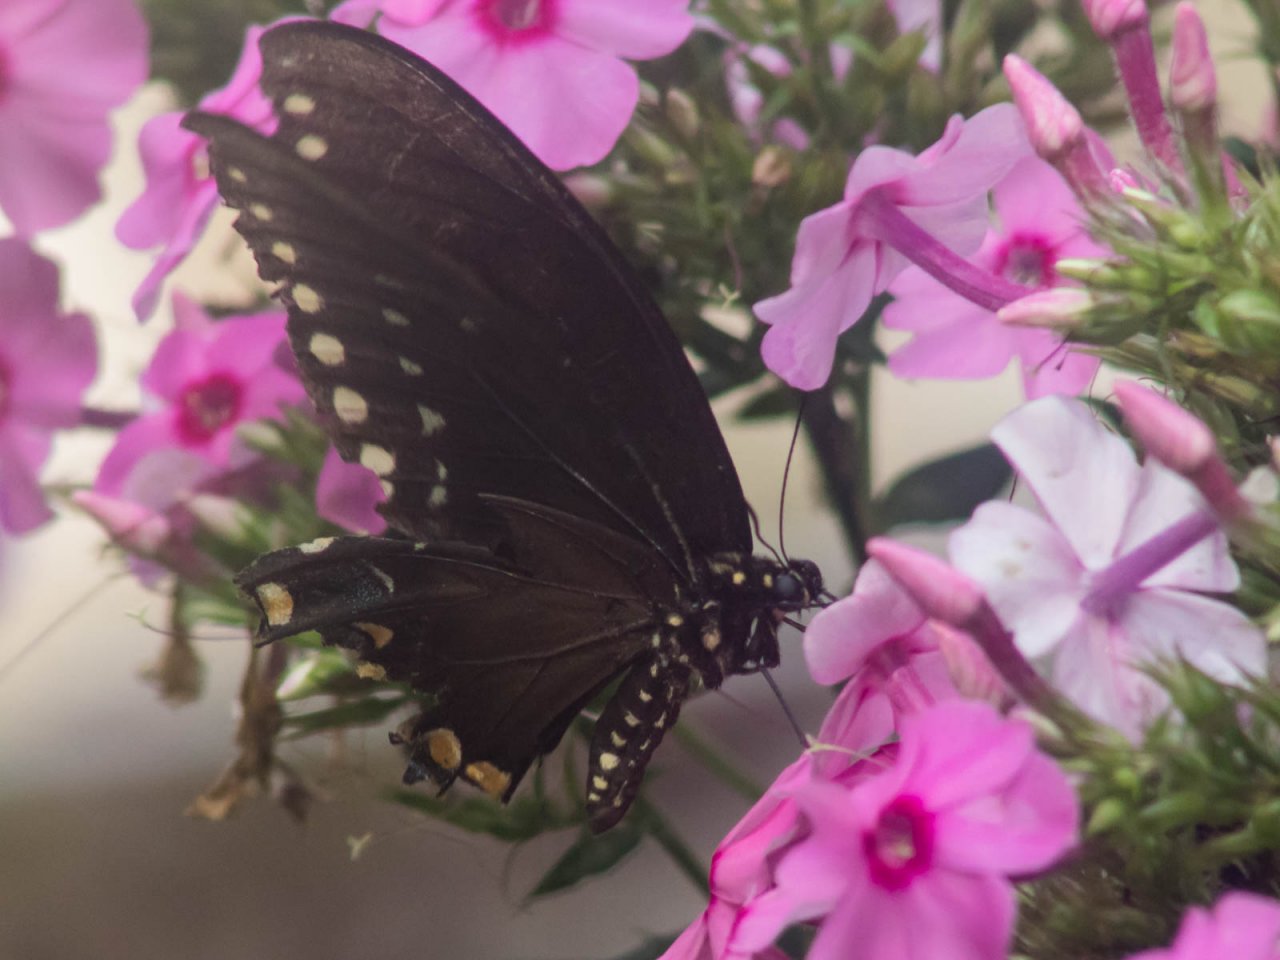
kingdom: Animalia
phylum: Arthropoda
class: Insecta
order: Lepidoptera
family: Papilionidae
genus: Pterourus
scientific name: Pterourus troilus
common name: Spicebush Swallowtail
